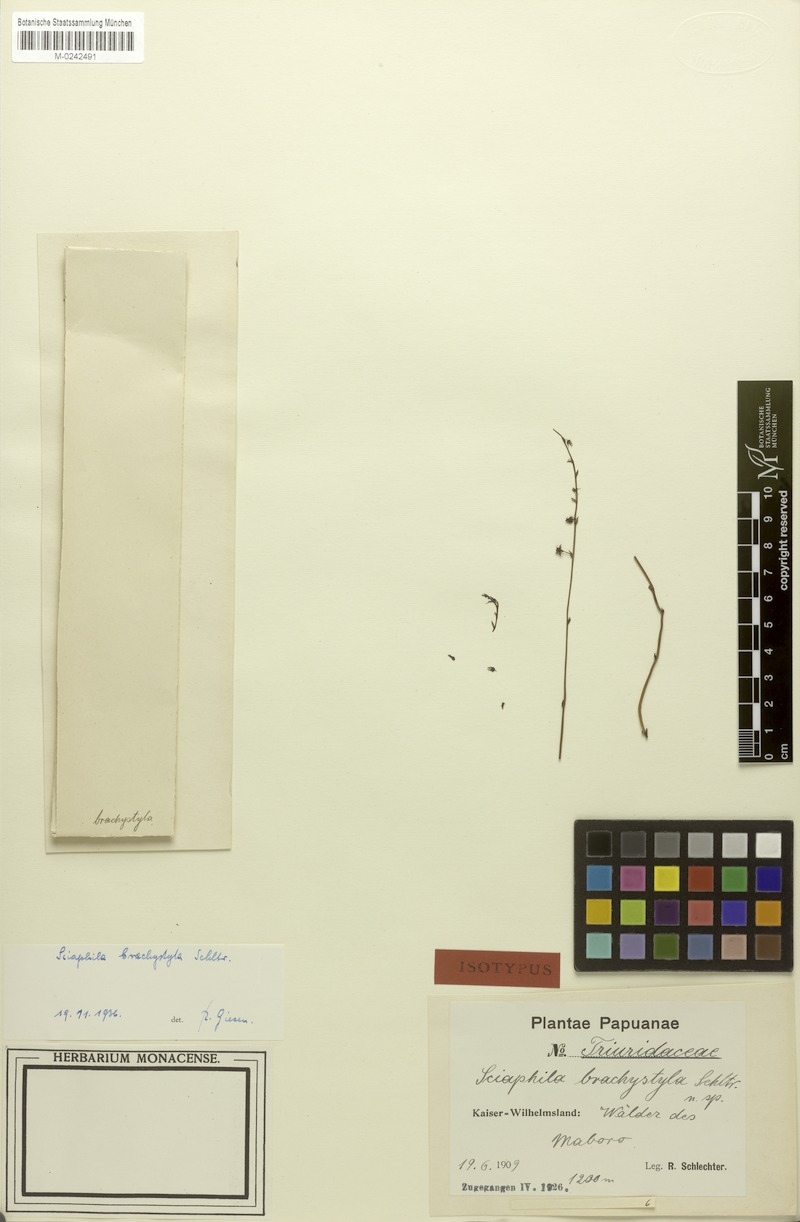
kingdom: Plantae
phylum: Tracheophyta
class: Liliopsida
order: Pandanales
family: Triuridaceae
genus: Sciaphila
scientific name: Sciaphila secundiflora
